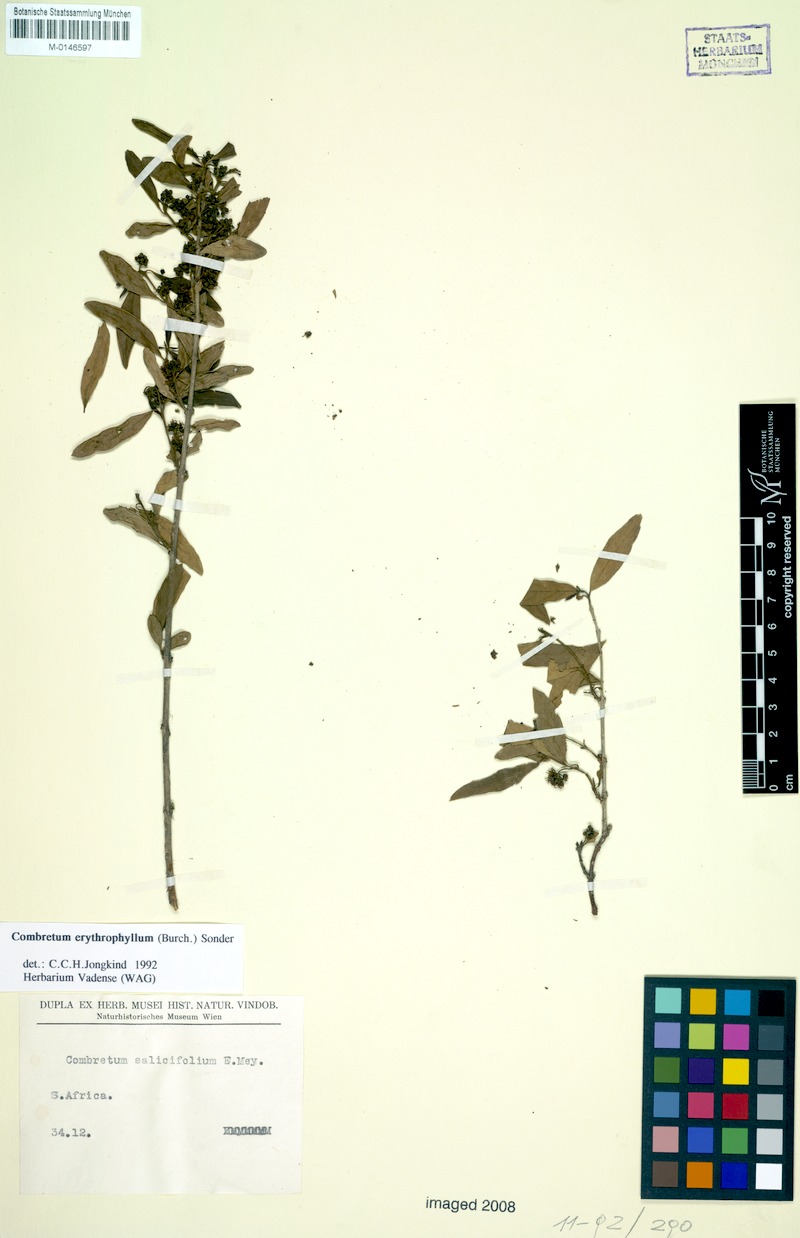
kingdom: Plantae
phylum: Tracheophyta
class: Magnoliopsida
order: Myrtales
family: Combretaceae
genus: Combretum
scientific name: Combretum erythrophyllum
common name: Bush-willow
